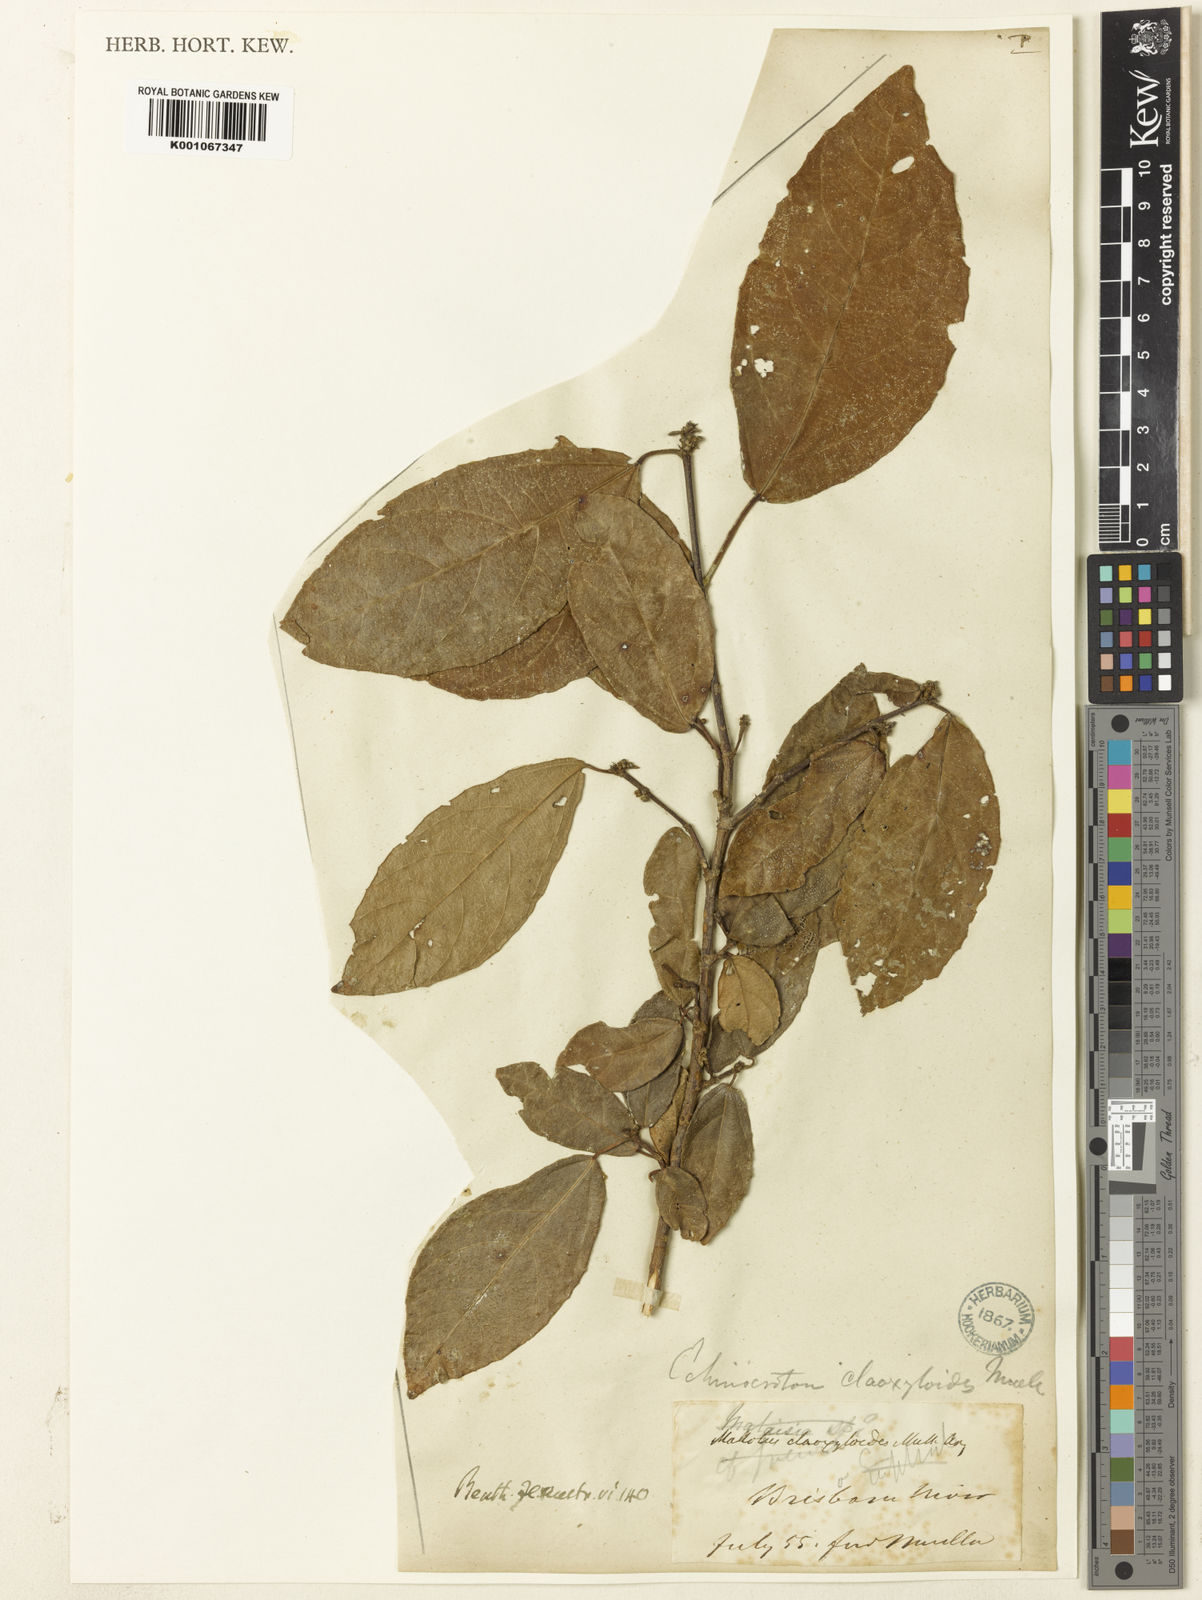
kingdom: Plantae
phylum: Tracheophyta
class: Magnoliopsida
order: Malpighiales
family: Euphorbiaceae
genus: Mallotus
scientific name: Mallotus claoxyloides
